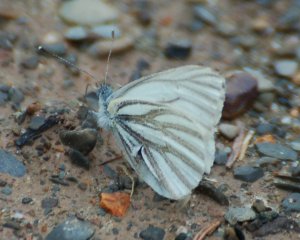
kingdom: Animalia
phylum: Arthropoda
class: Insecta
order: Lepidoptera
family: Pieridae
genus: Pieris
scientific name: Pieris oleracea
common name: Mustard White
